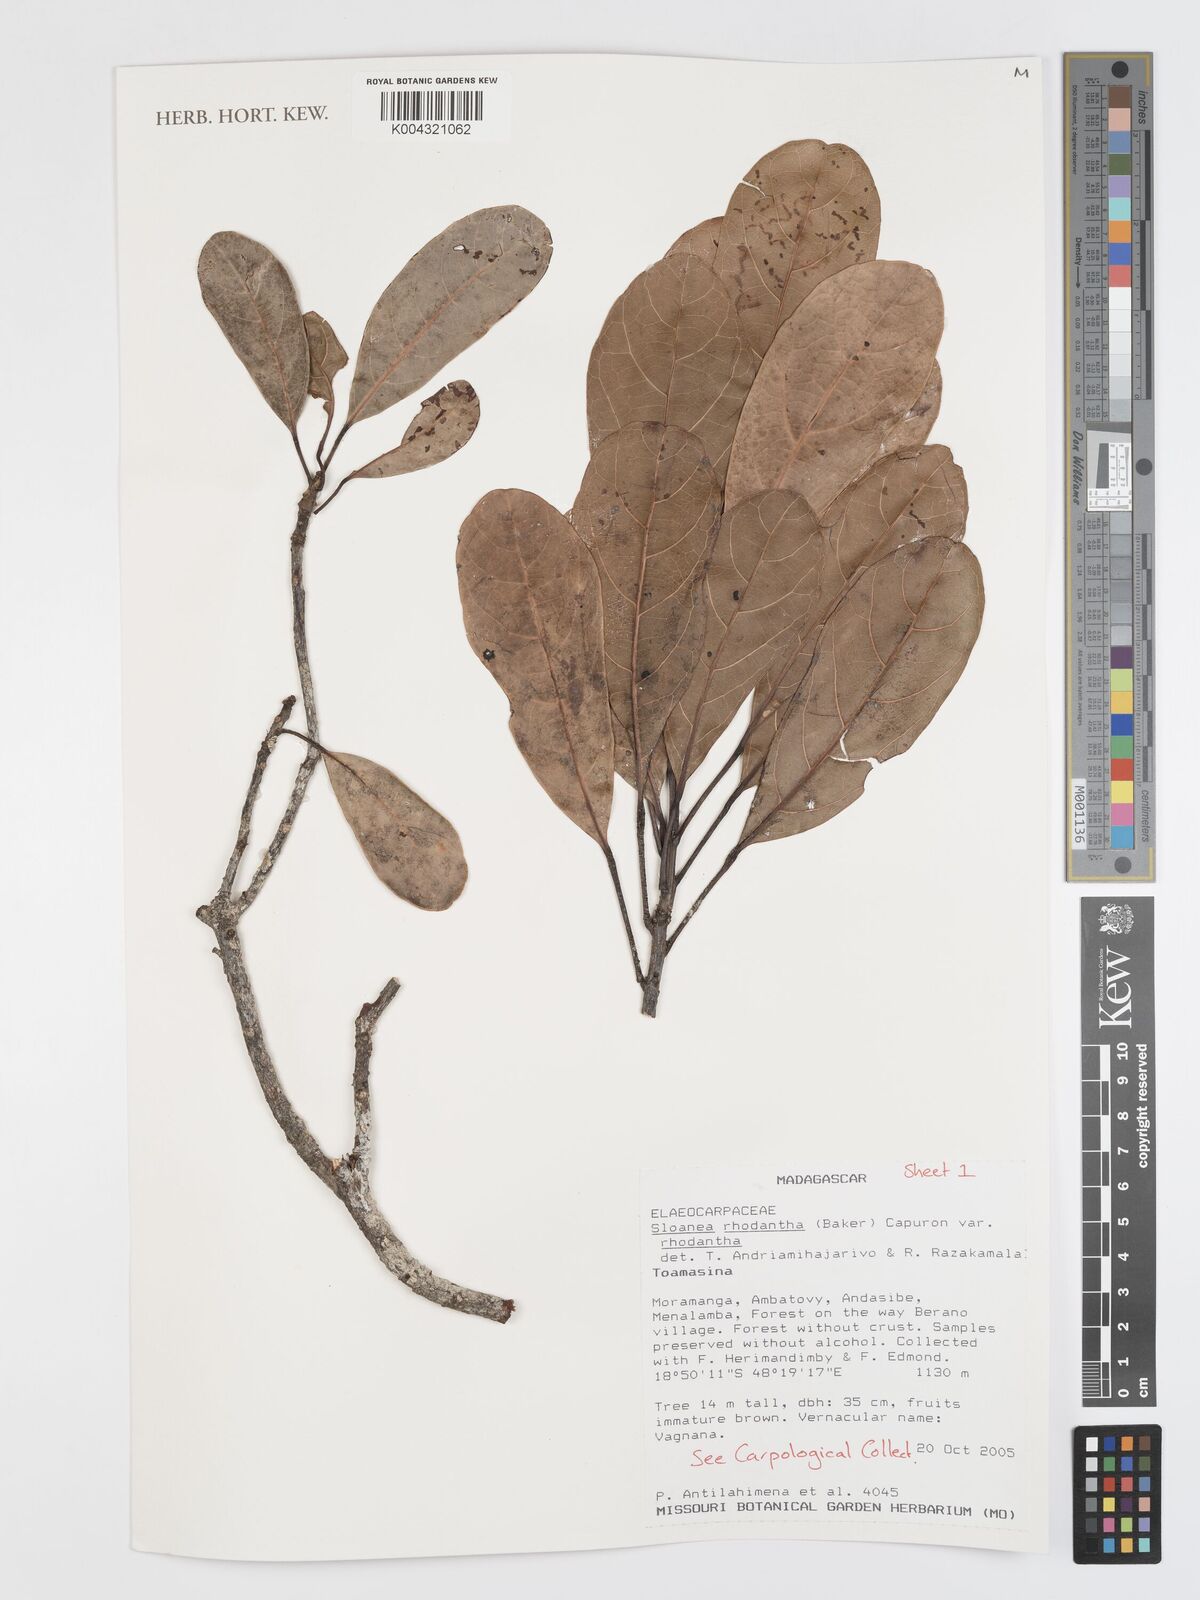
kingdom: Plantae
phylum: Tracheophyta
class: Magnoliopsida
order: Oxalidales
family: Elaeocarpaceae
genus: Sloanea
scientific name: Sloanea rhodantha
